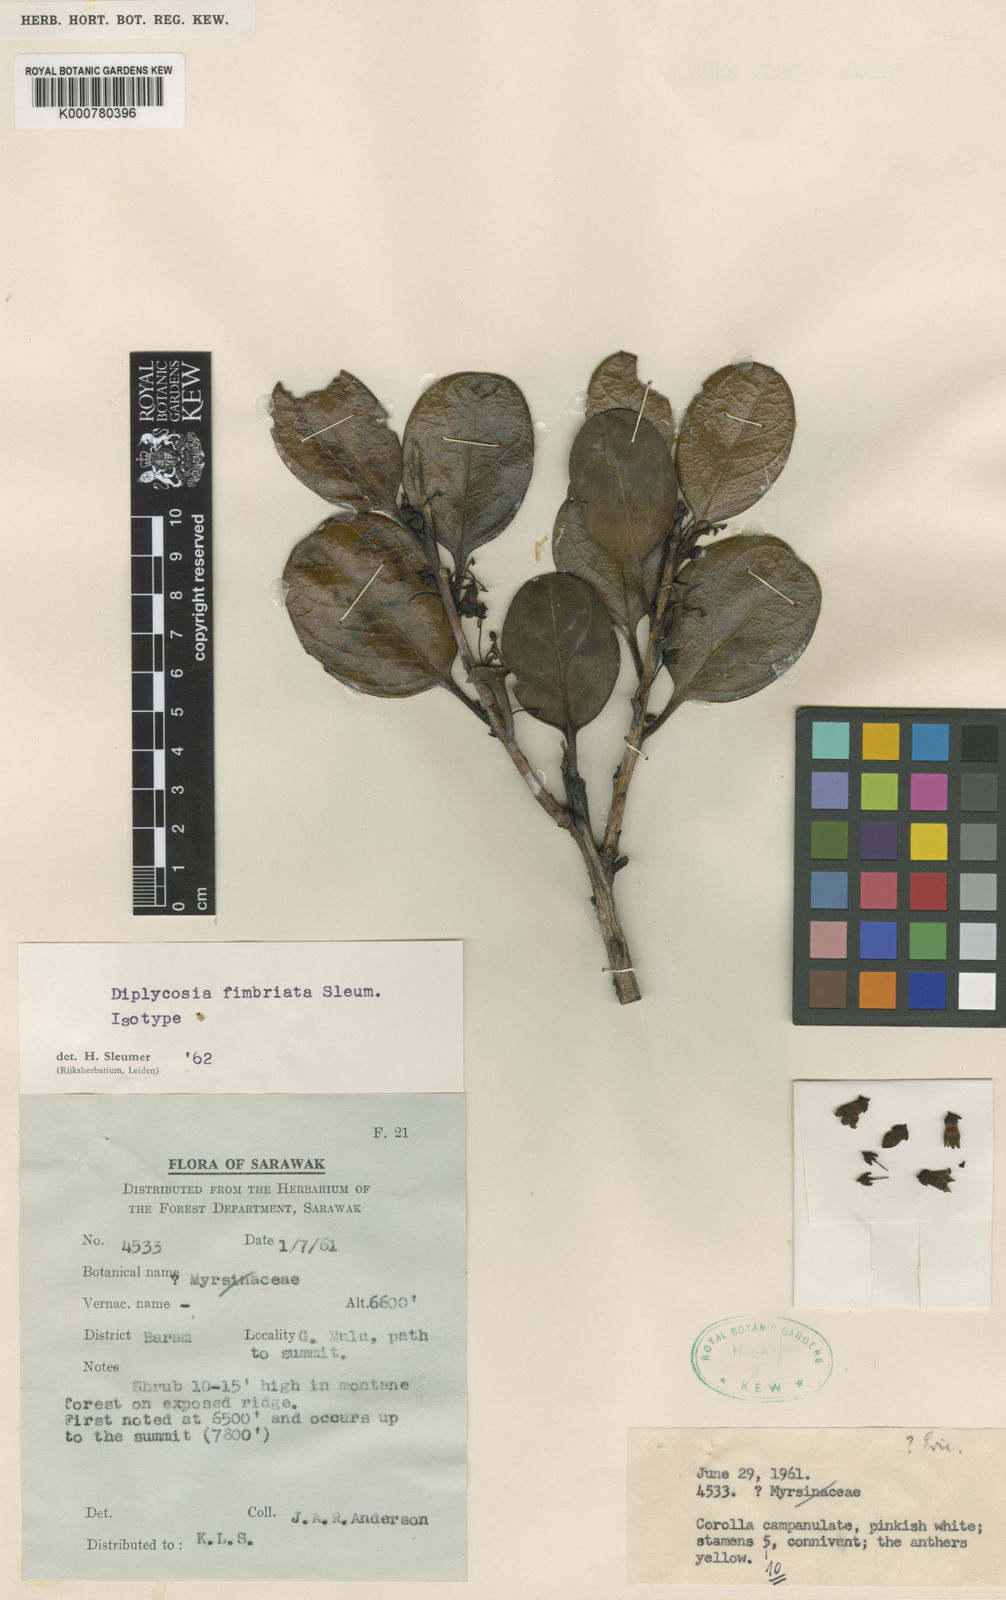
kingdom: Plantae
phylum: Tracheophyta
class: Magnoliopsida
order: Ericales
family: Ericaceae
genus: Gaultheria
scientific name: Gaultheria fimbriata
